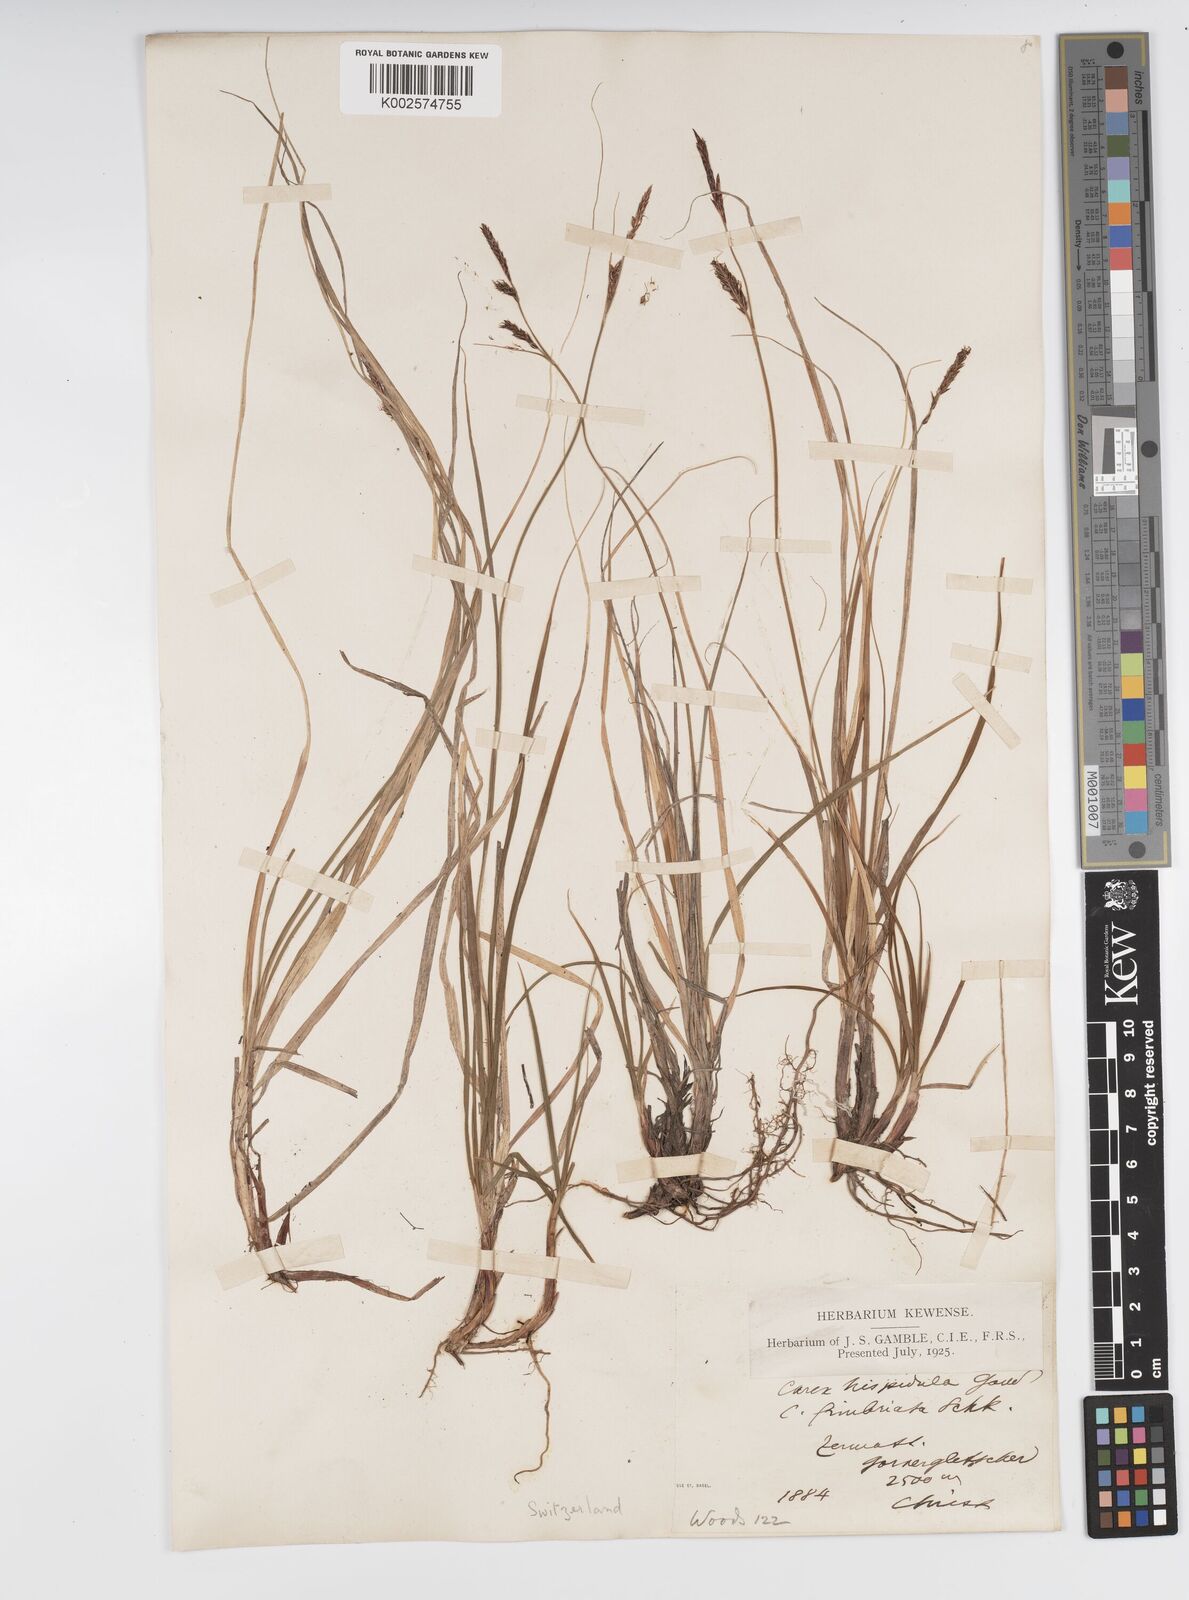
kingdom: Plantae
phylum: Tracheophyta
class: Liliopsida
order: Poales
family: Cyperaceae
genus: Carex
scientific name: Carex fimbriata
